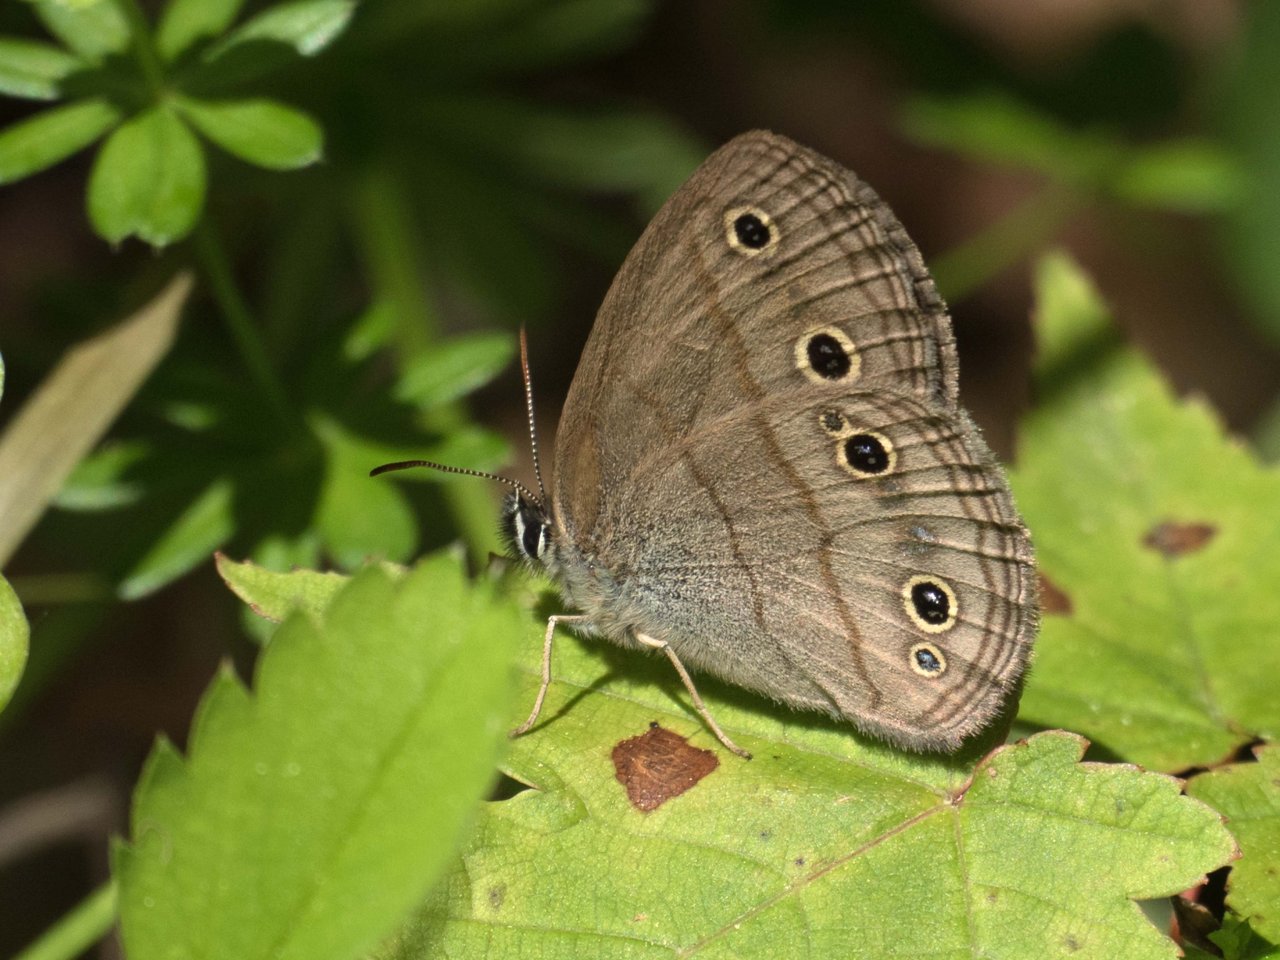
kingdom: Animalia
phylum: Arthropoda
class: Insecta
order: Lepidoptera
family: Nymphalidae
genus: Euptychia
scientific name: Euptychia cymela
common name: Little Wood Satyr
